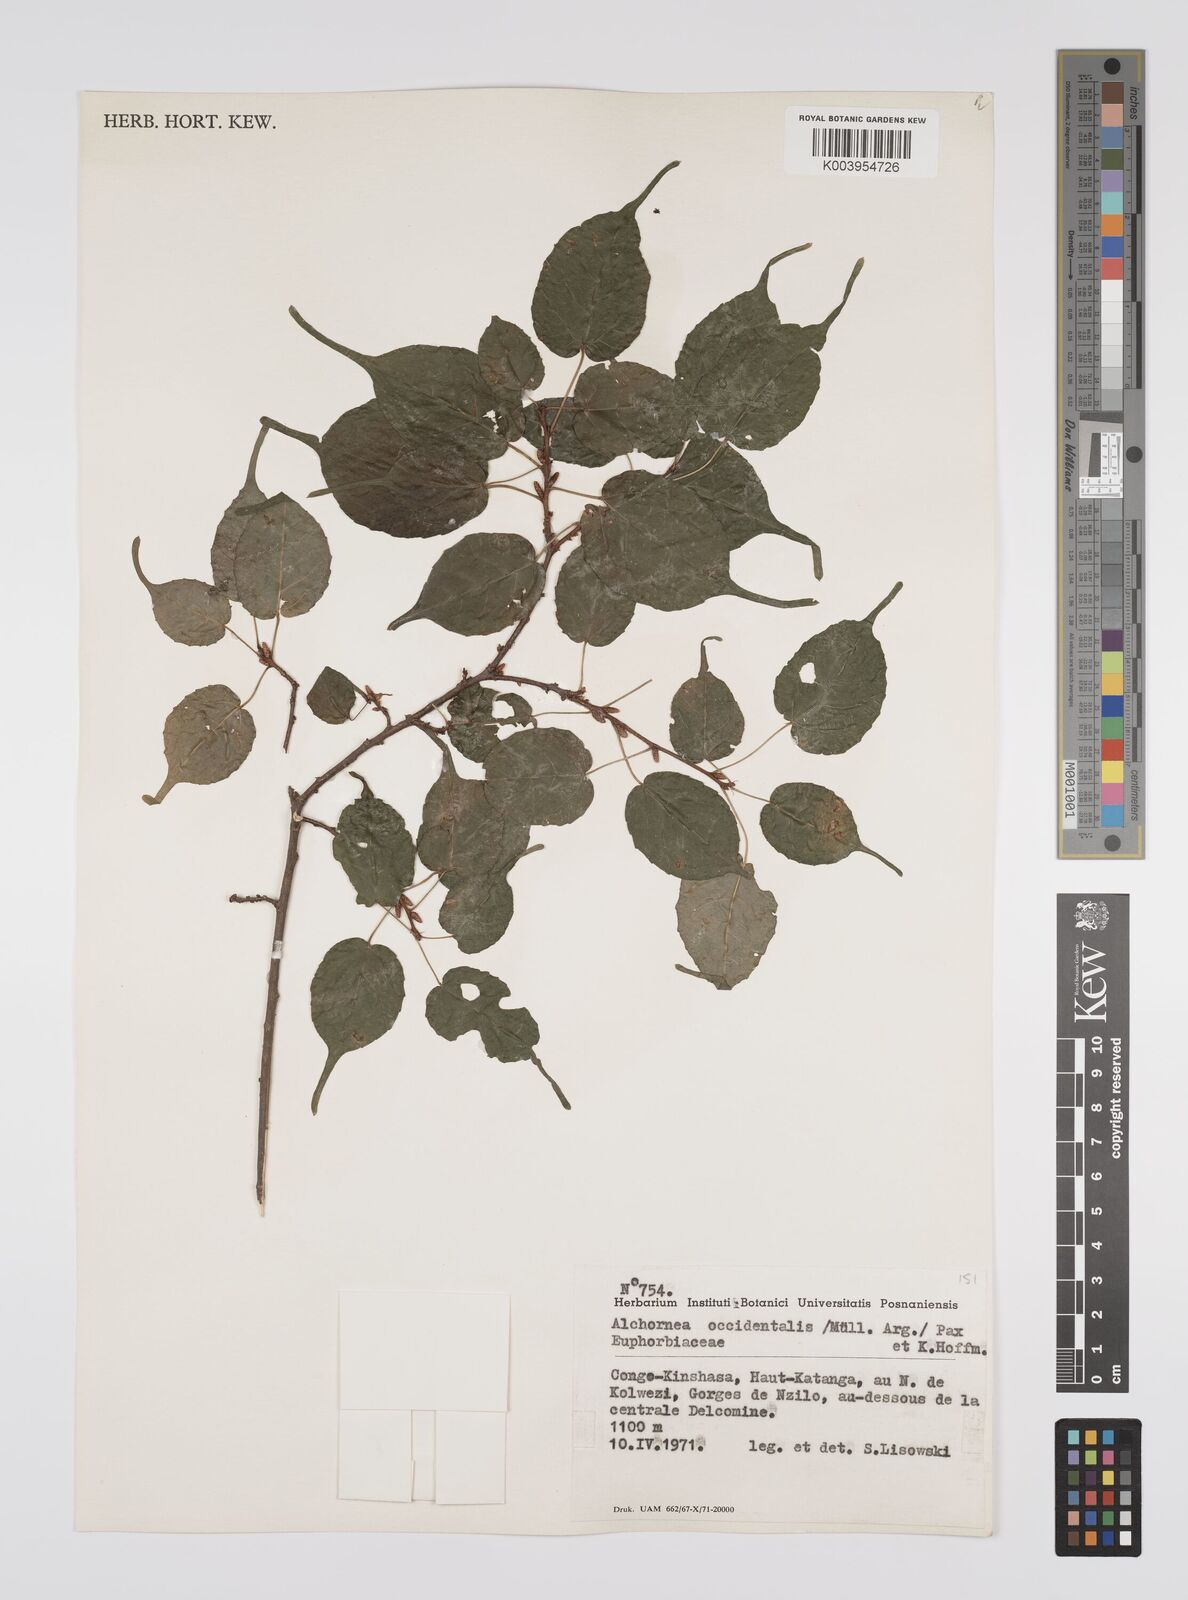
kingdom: Plantae
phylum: Tracheophyta
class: Magnoliopsida
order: Malpighiales
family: Euphorbiaceae
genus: Alchornea
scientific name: Alchornea occidentalis
